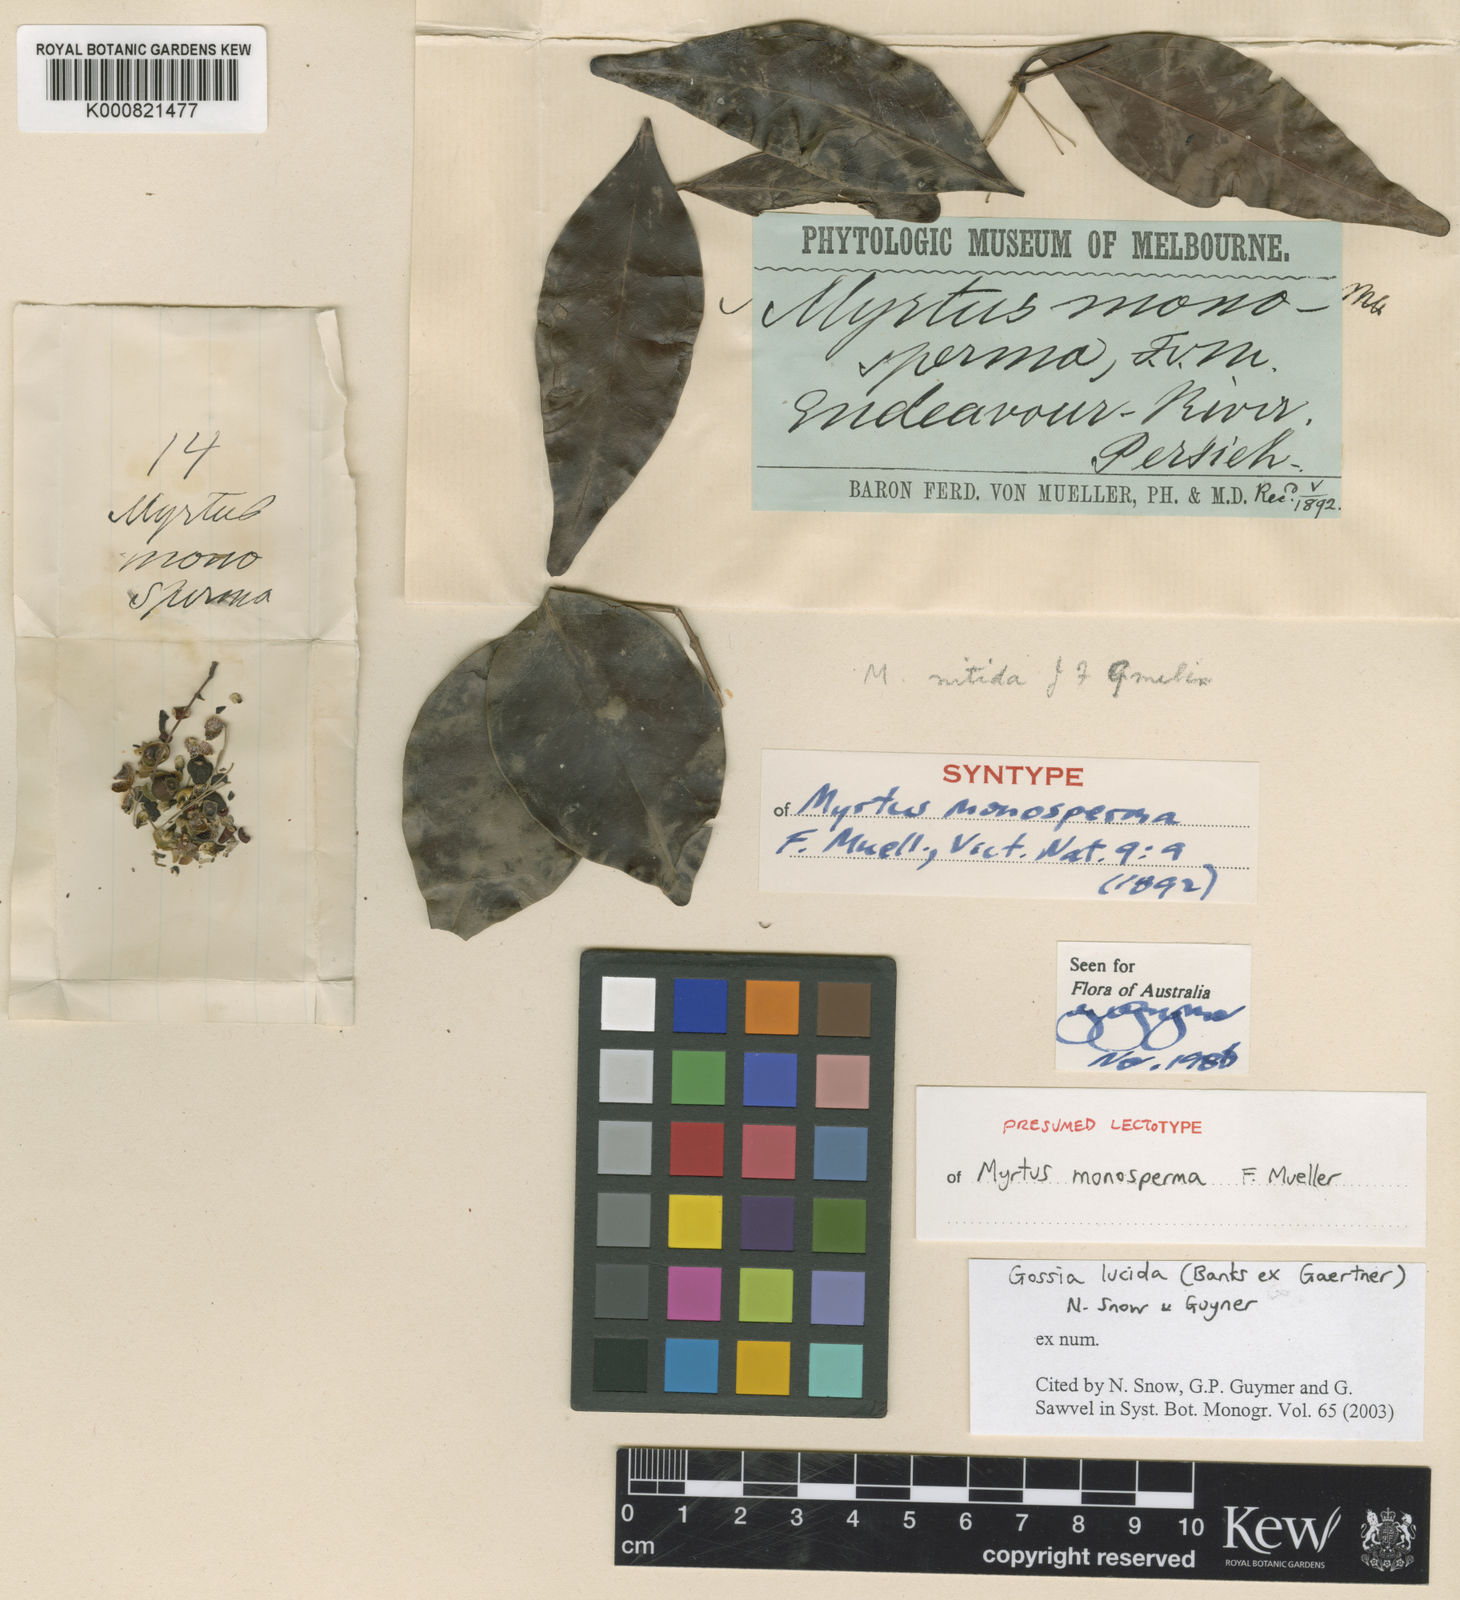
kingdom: Plantae
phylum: Tracheophyta
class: Magnoliopsida
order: Myrtales
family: Myrtaceae
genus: Gossia
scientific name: Gossia lucida
